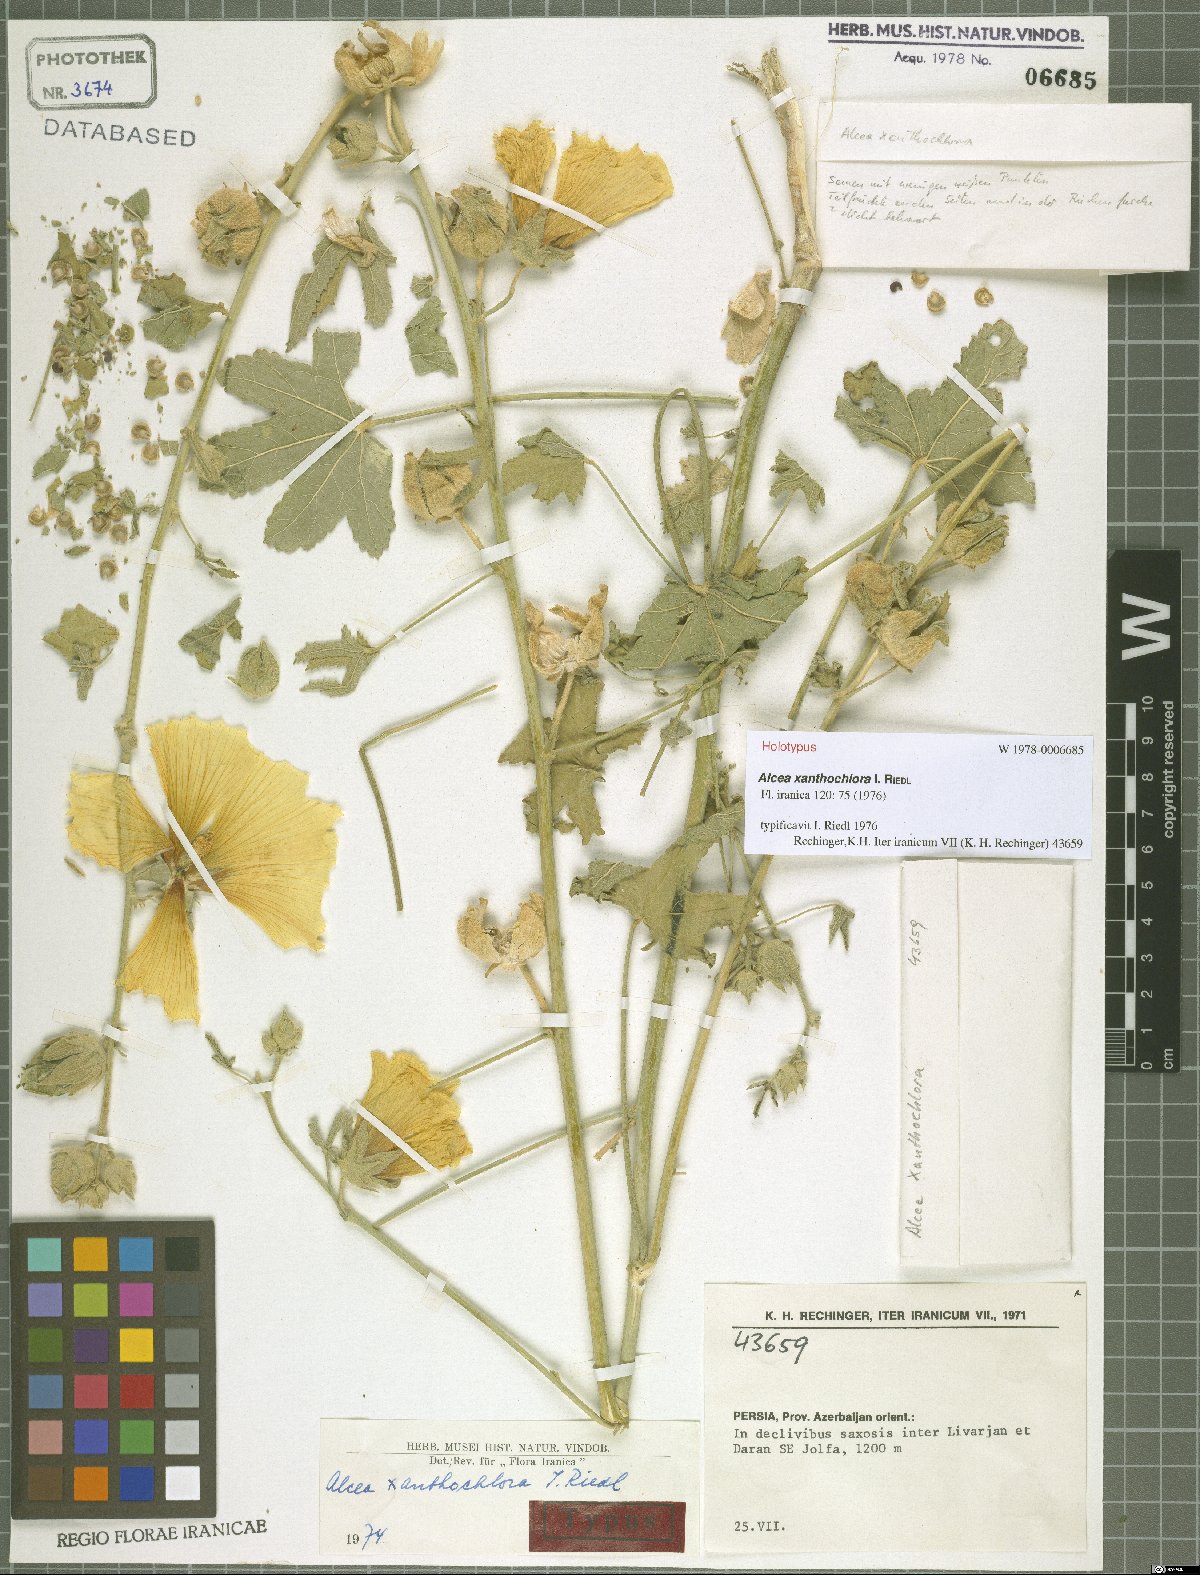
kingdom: Plantae
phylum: Tracheophyta
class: Magnoliopsida
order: Malvales
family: Malvaceae
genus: Alcea
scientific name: Alcea xanthochlora
